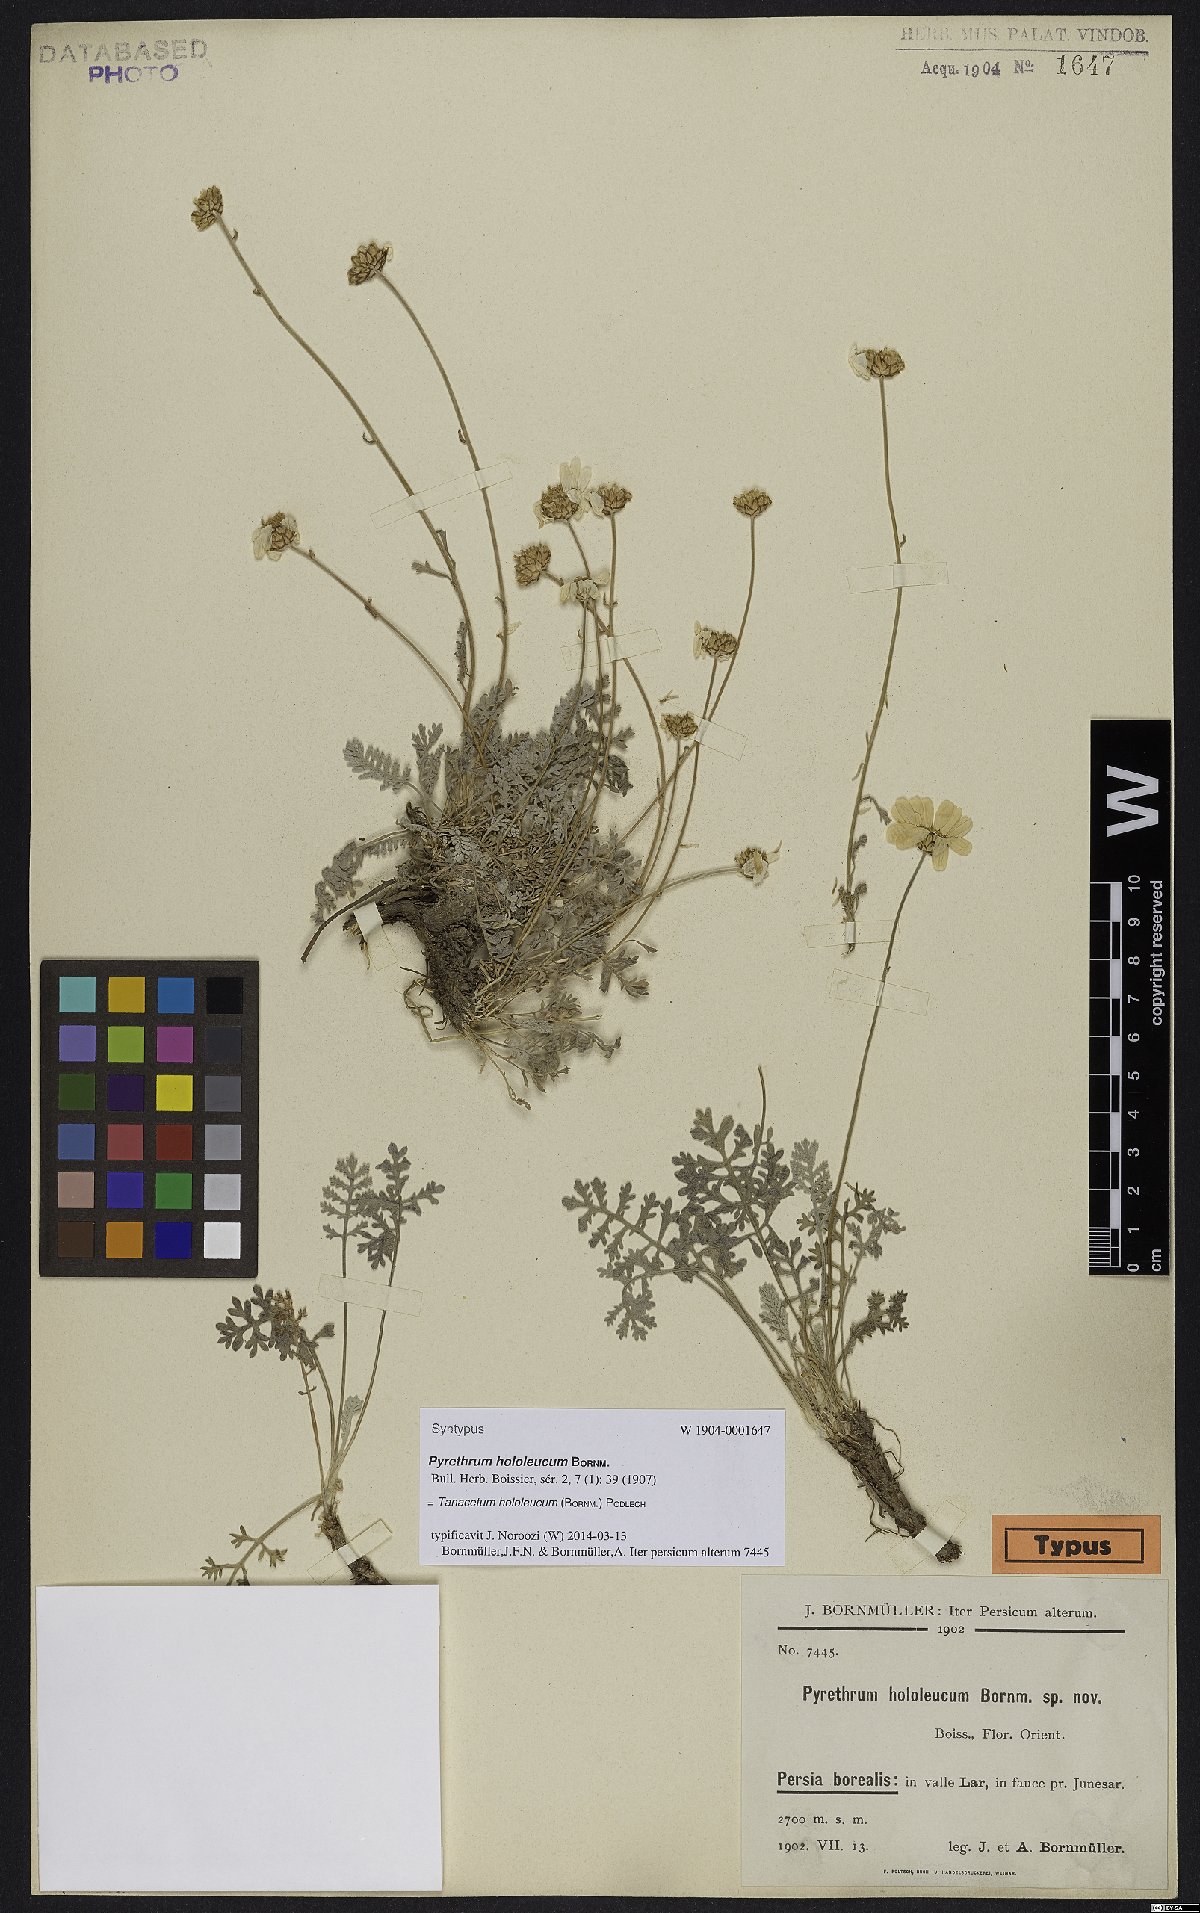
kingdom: Plantae
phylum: Tracheophyta
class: Magnoliopsida
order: Asterales
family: Asteraceae
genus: Tanacetum
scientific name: Tanacetum hololeucum
